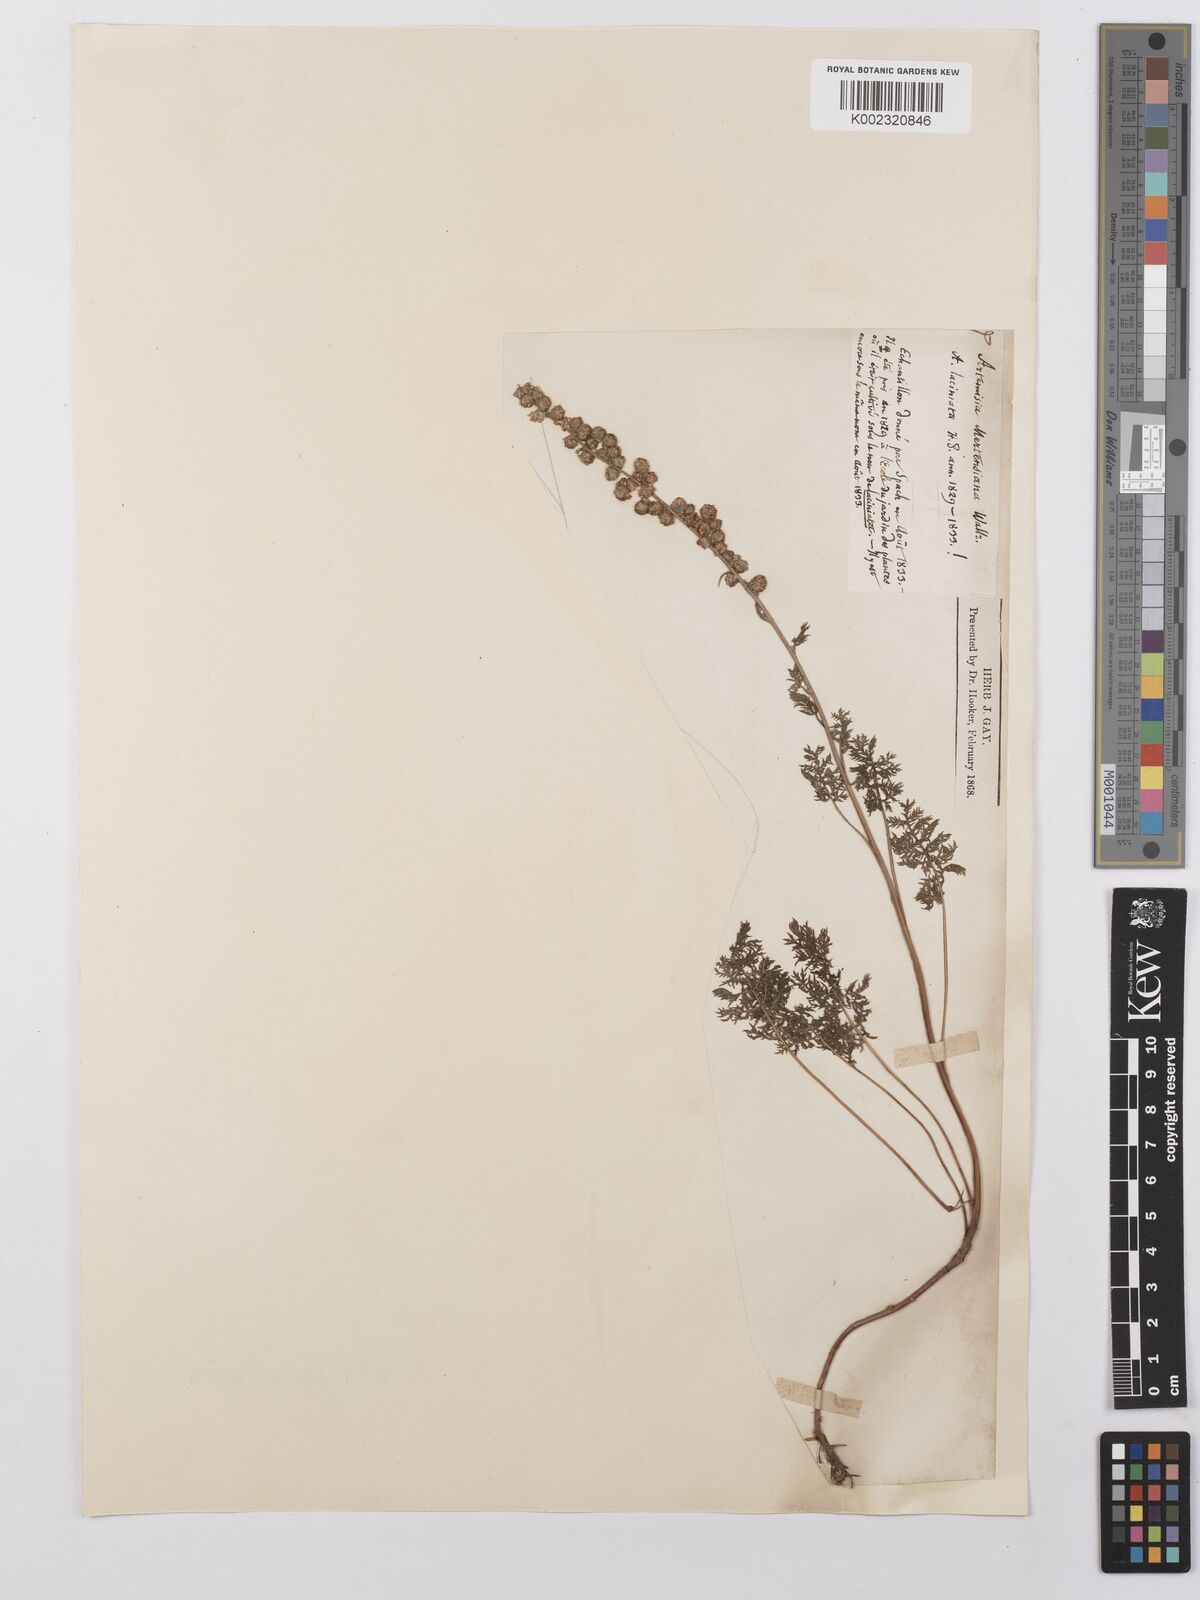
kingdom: Plantae
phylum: Tracheophyta
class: Magnoliopsida
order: Asterales
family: Asteraceae
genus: Artemisia
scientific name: Artemisia laciniata
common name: Siberian wormwood
